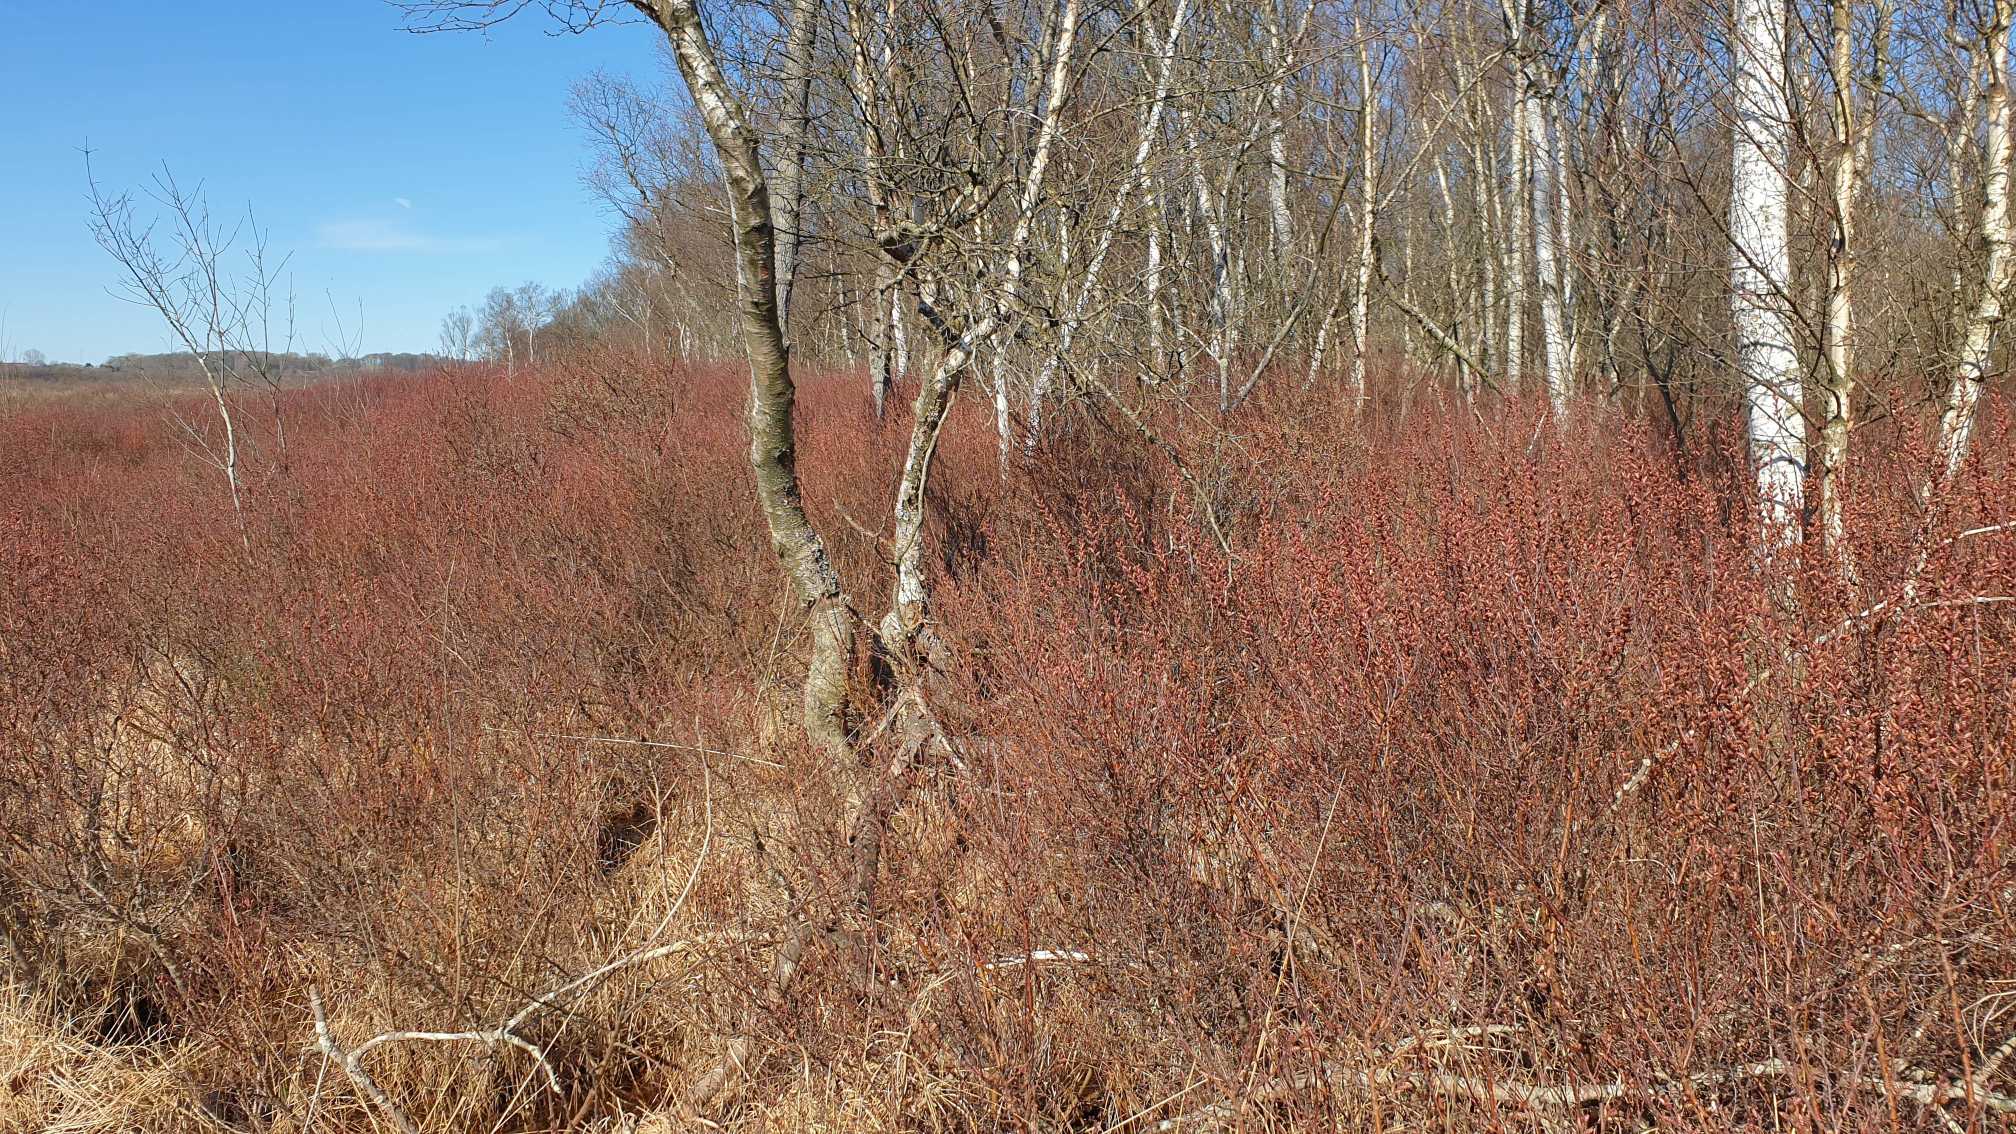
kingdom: Plantae
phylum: Tracheophyta
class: Magnoliopsida
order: Fagales
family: Myricaceae
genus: Myrica
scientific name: Myrica gale
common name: Pors
